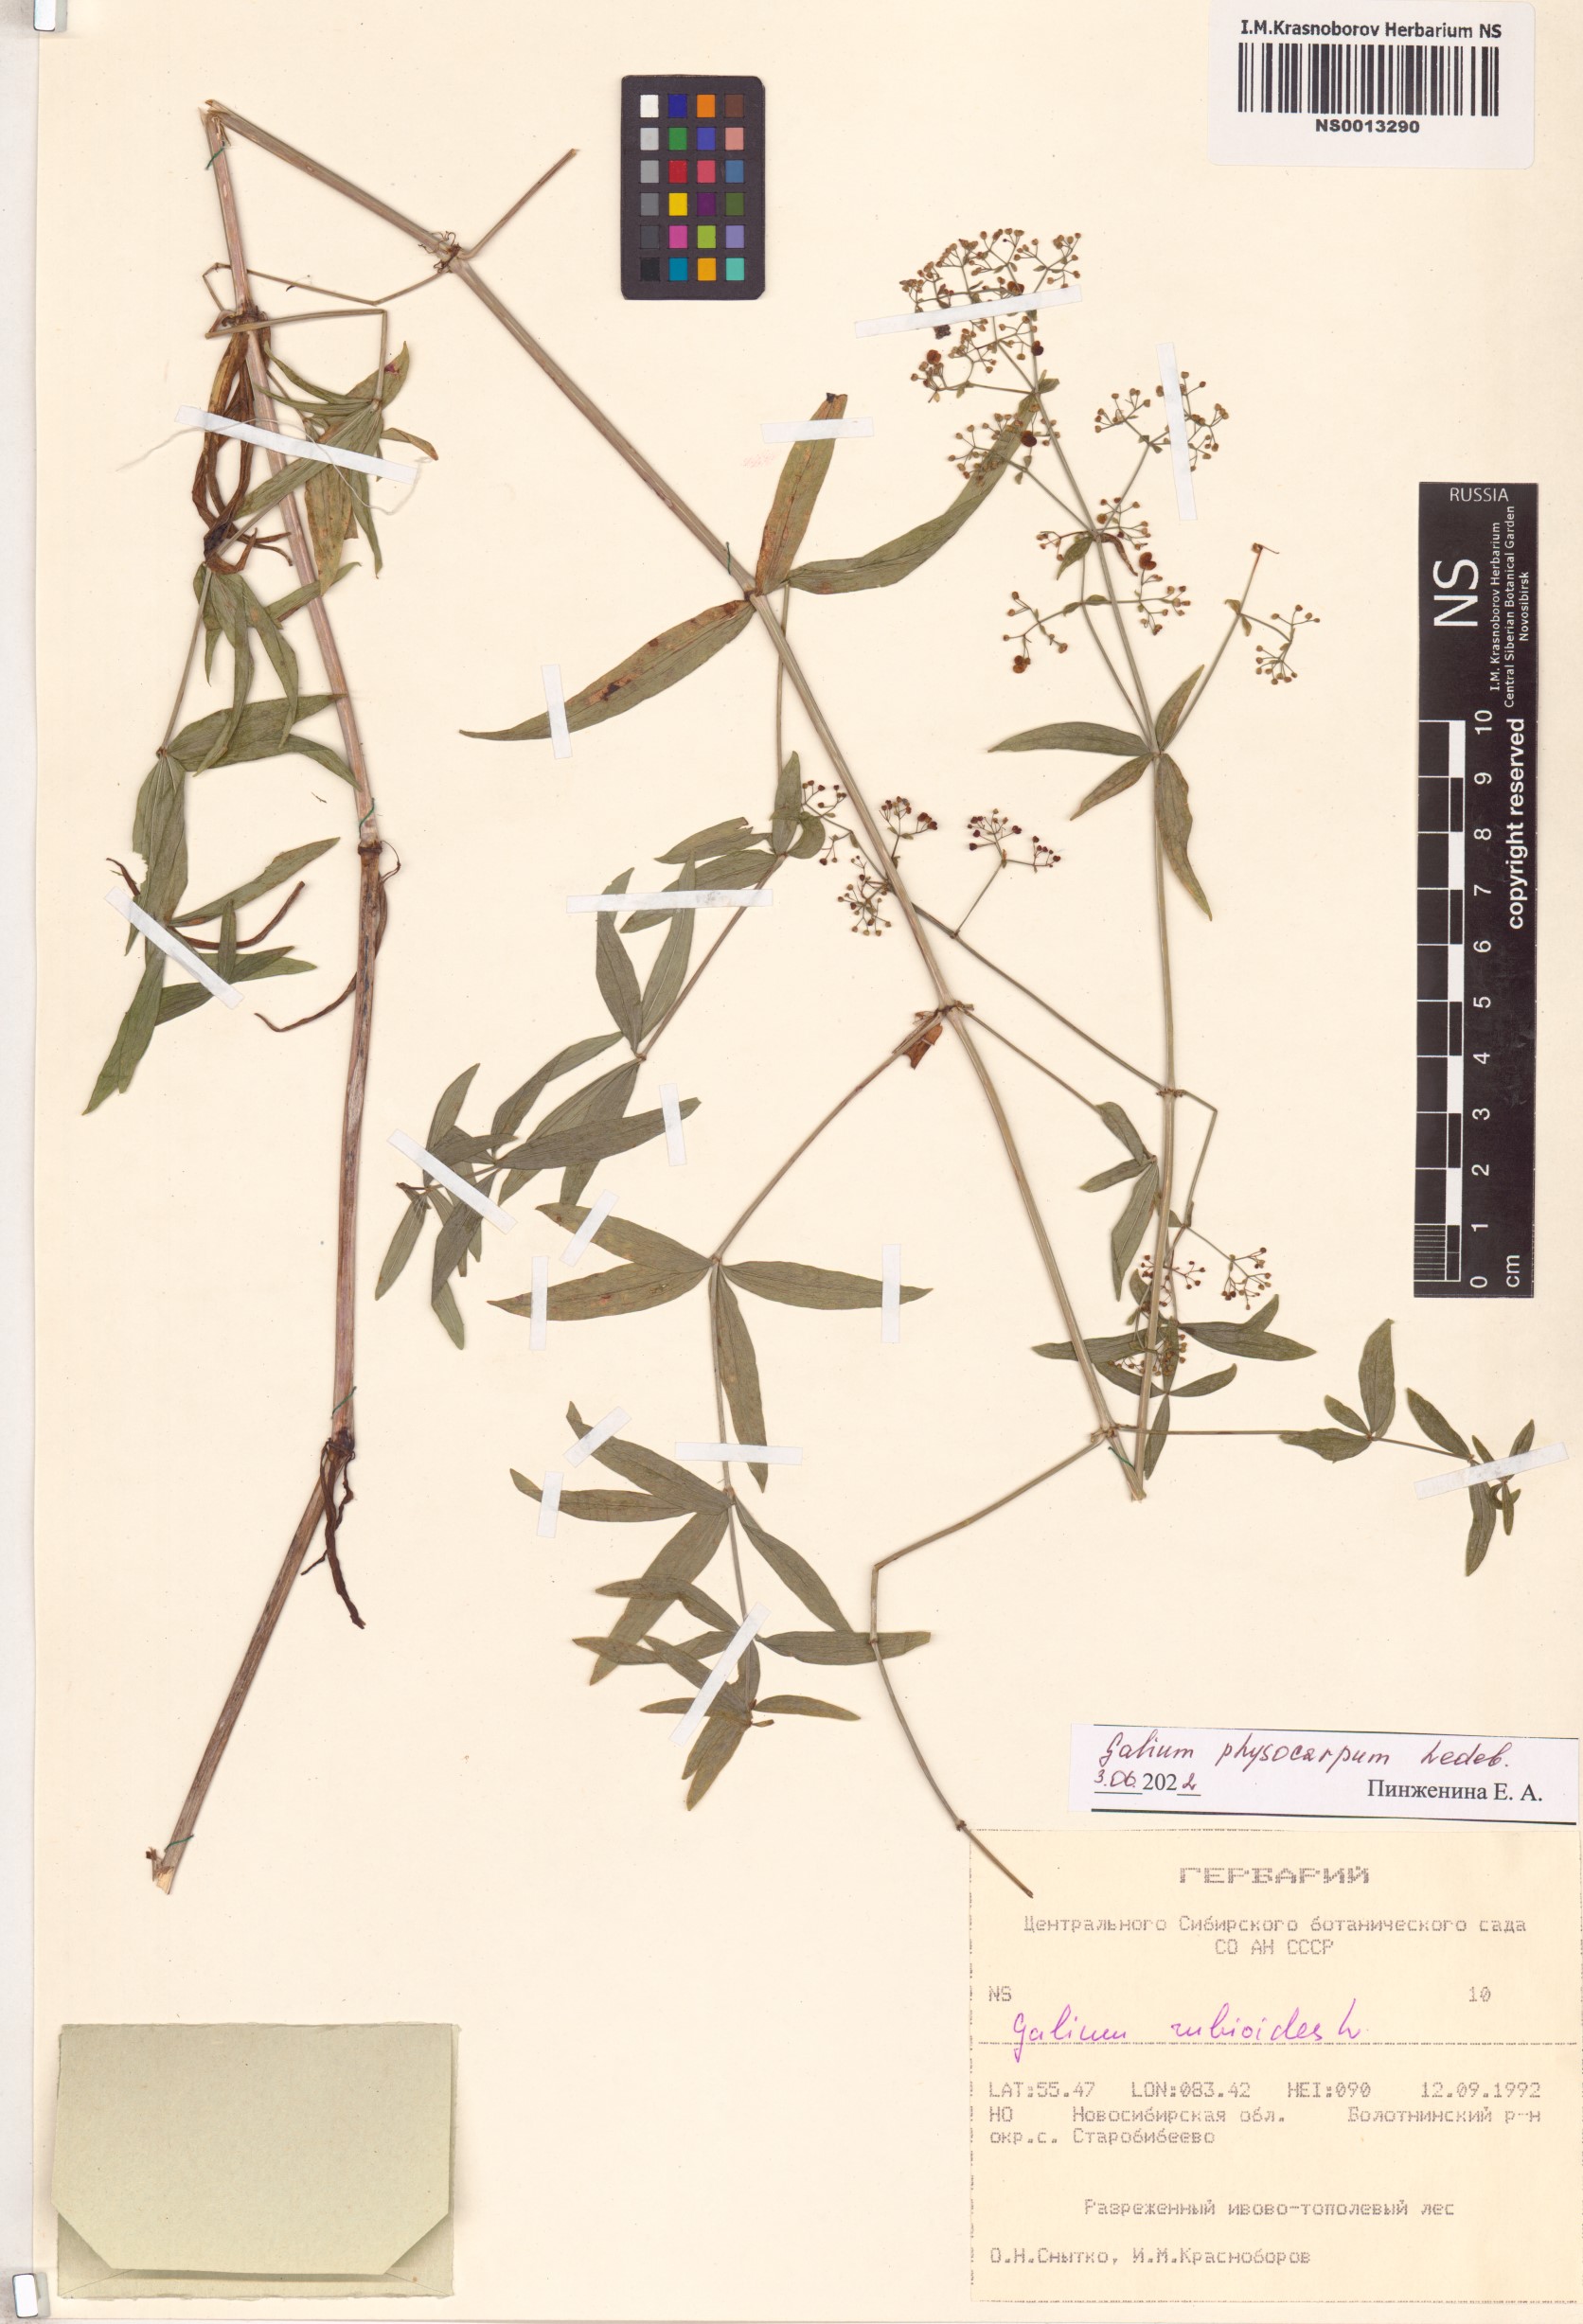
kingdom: Plantae
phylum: Tracheophyta
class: Magnoliopsida
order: Gentianales
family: Rubiaceae
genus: Galium
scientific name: Galium rubioides
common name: European bedstraw
